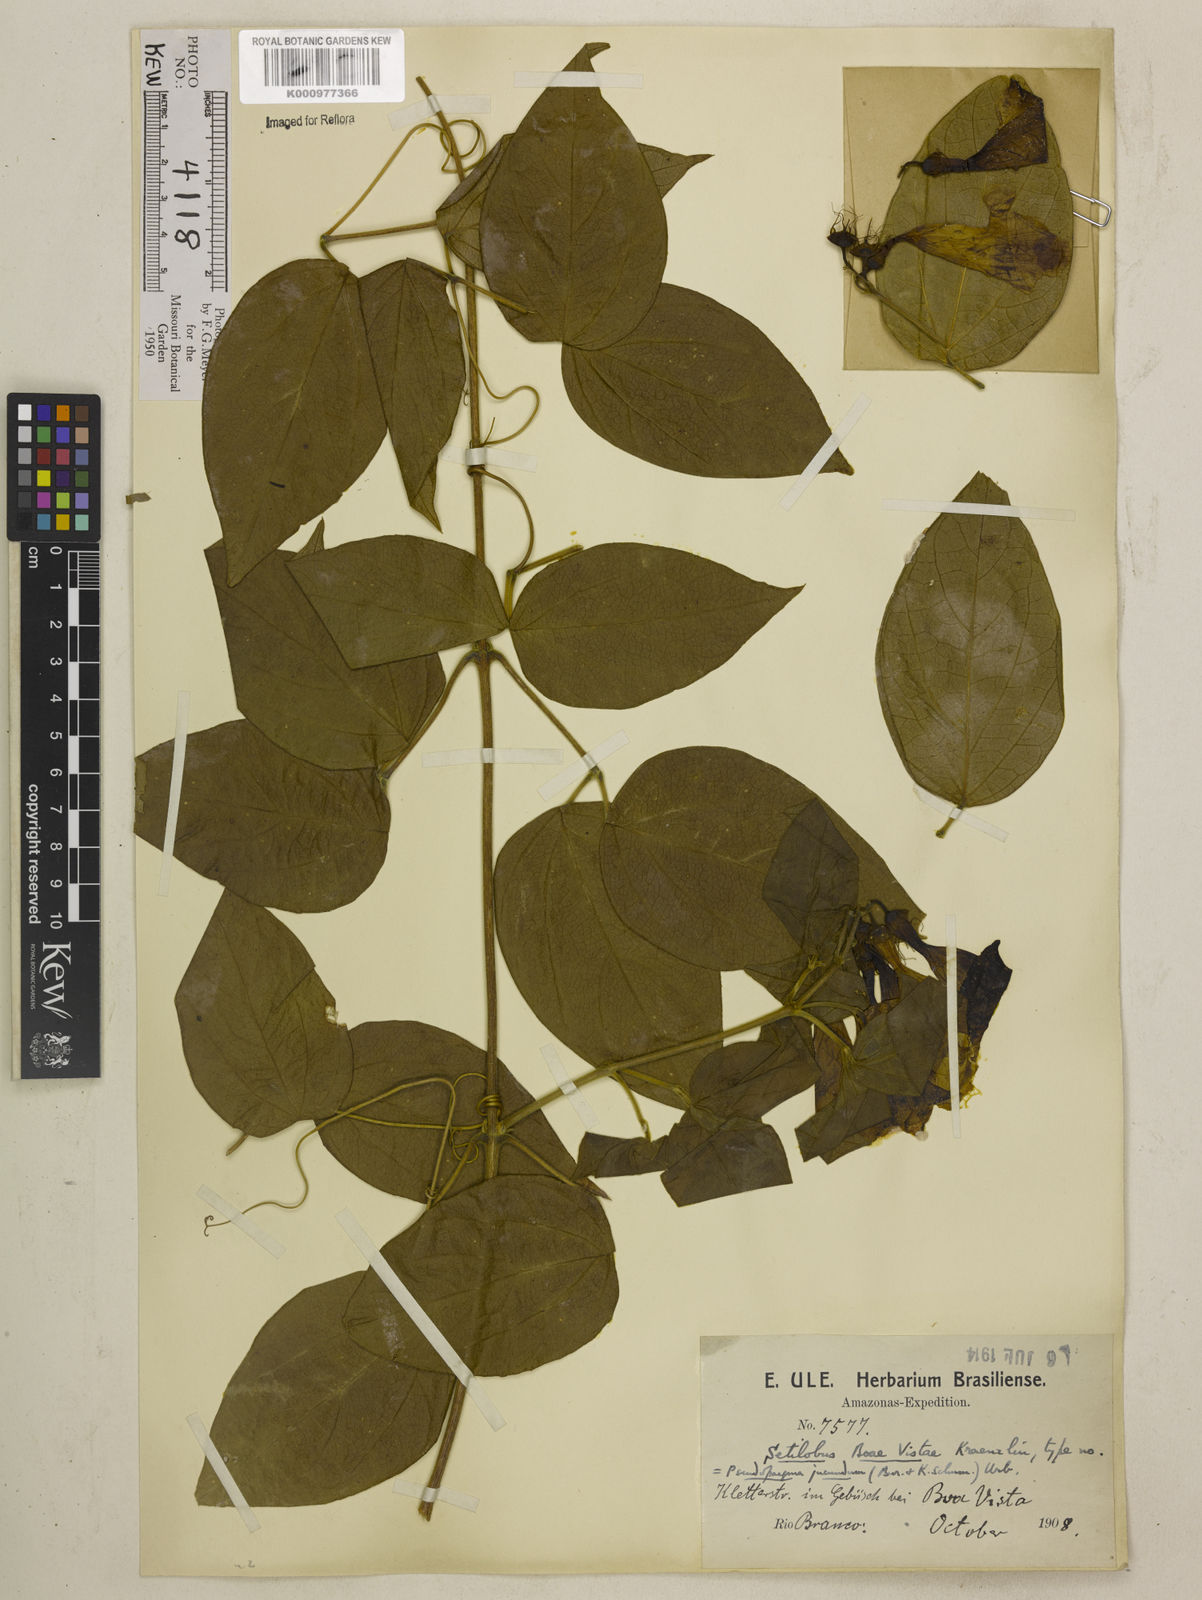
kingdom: Plantae
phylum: Tracheophyta
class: Magnoliopsida
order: Lamiales
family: Bignoniaceae
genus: Anemopaegma
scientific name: Anemopaegma jucundum
